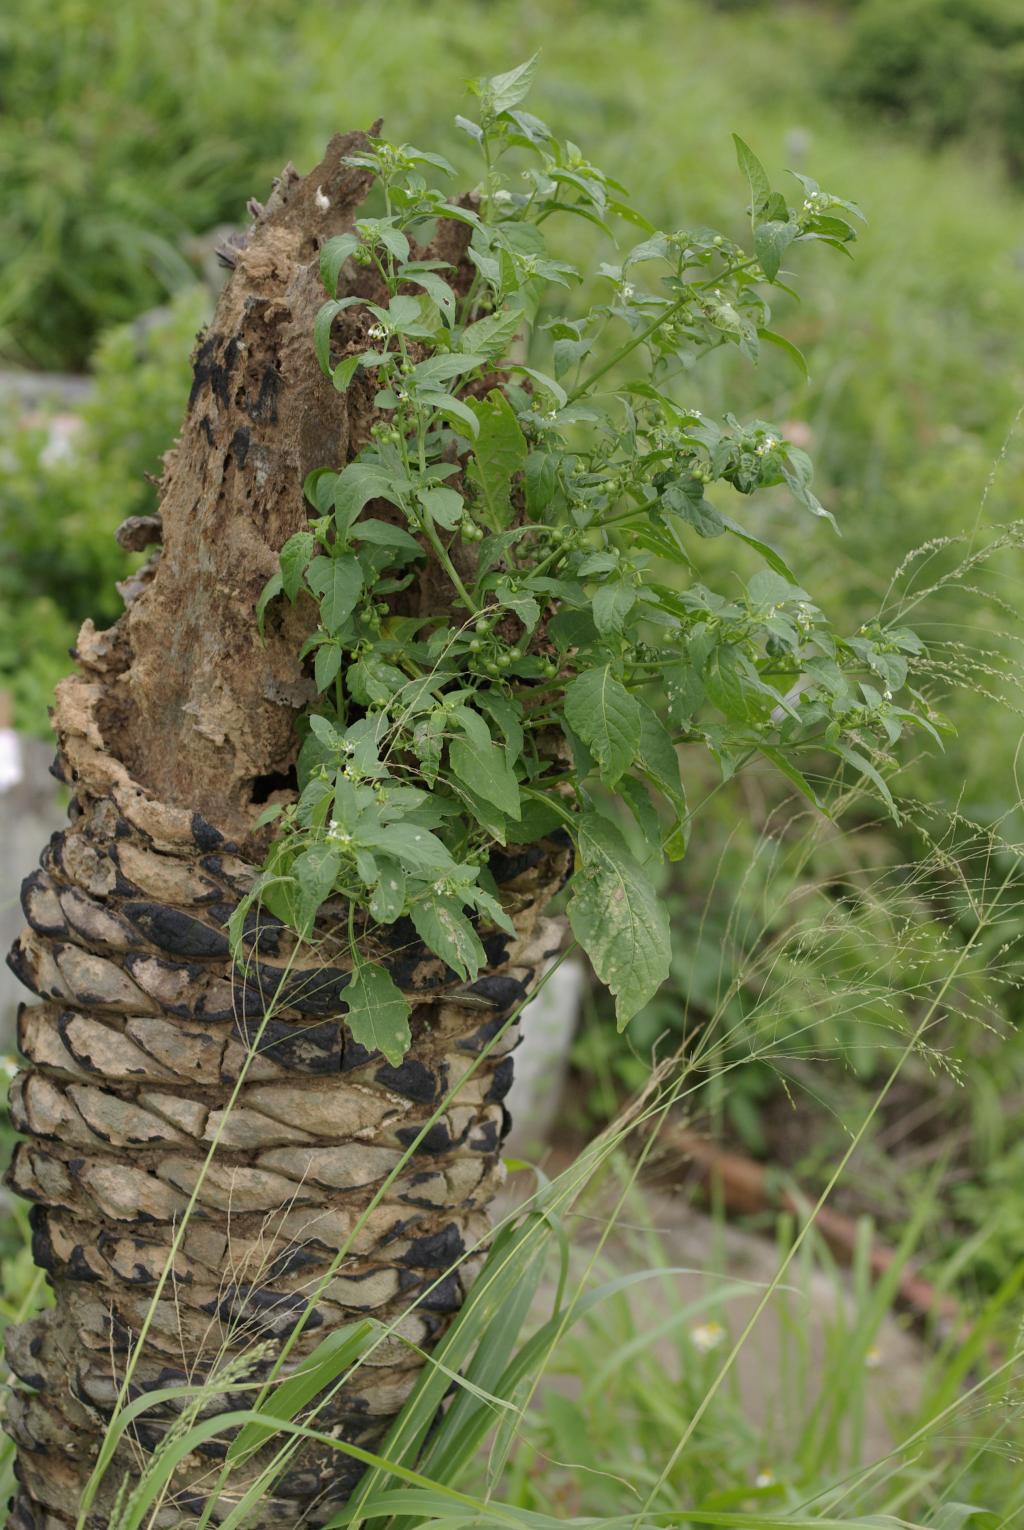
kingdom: Plantae
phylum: Tracheophyta
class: Magnoliopsida
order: Solanales
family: Solanaceae
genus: Solanum
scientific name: Solanum americanum
